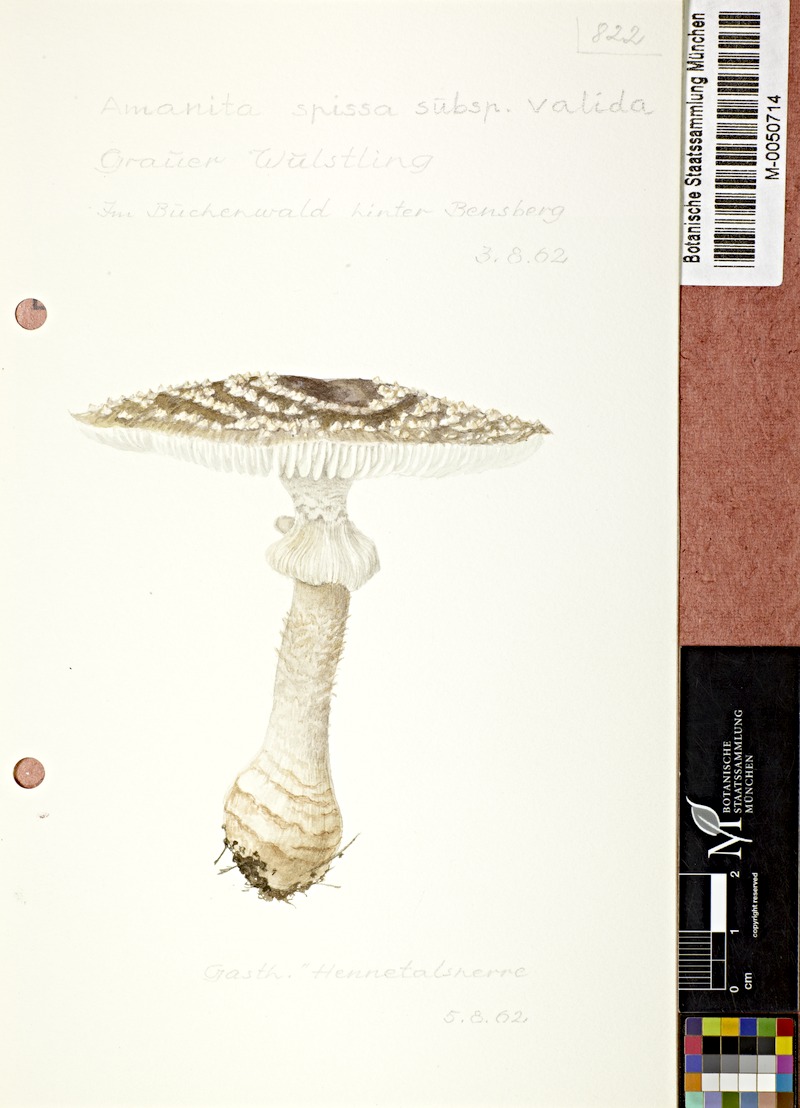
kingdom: Fungi
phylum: Basidiomycota
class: Agaricomycetes
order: Agaricales
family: Amanitaceae
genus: Amanita
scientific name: Amanita excelsa
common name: European false blusher
